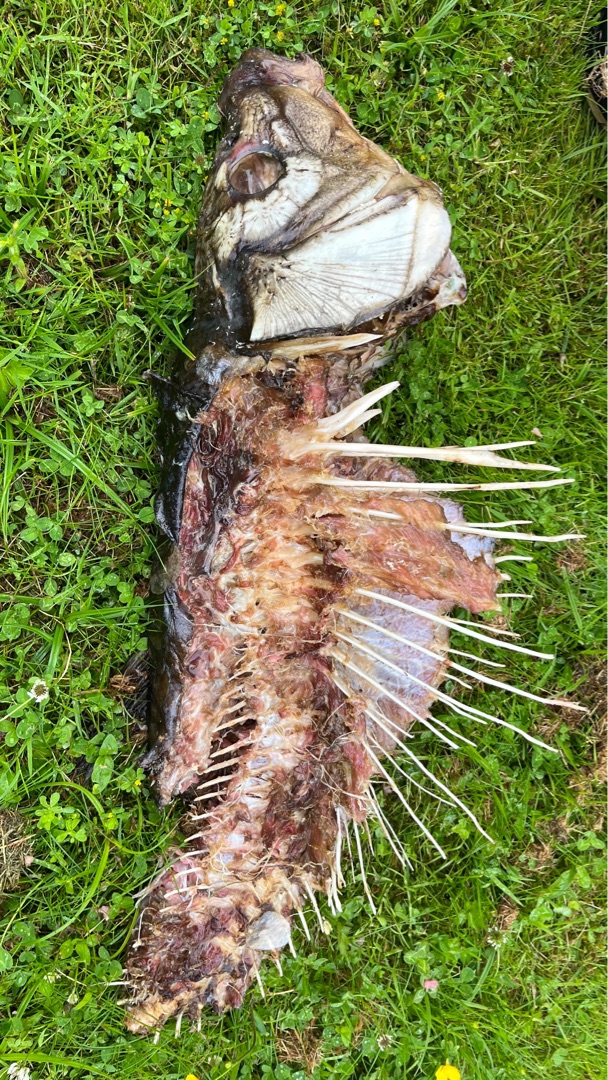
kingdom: Animalia
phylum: Chordata
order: Cypriniformes
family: Cyprinidae
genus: Cyprinus
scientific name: Cyprinus carpio
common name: Karpe
